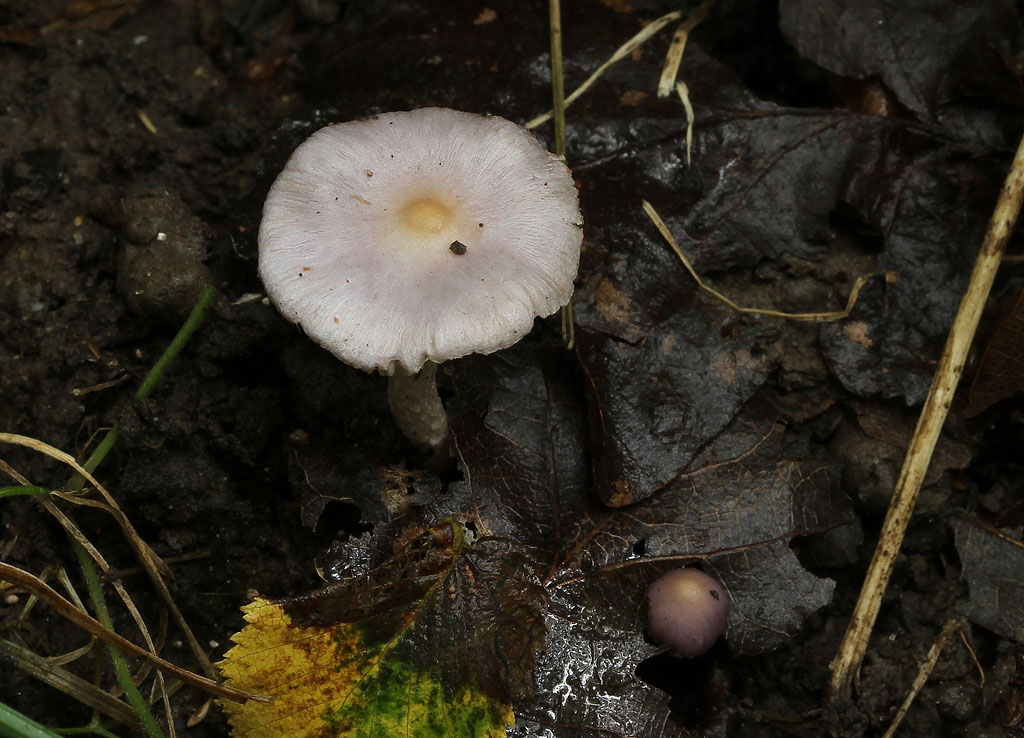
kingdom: Fungi
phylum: Basidiomycota
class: Agaricomycetes
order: Agaricales
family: Inocybaceae
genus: Inocybe
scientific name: Inocybe geophylla
